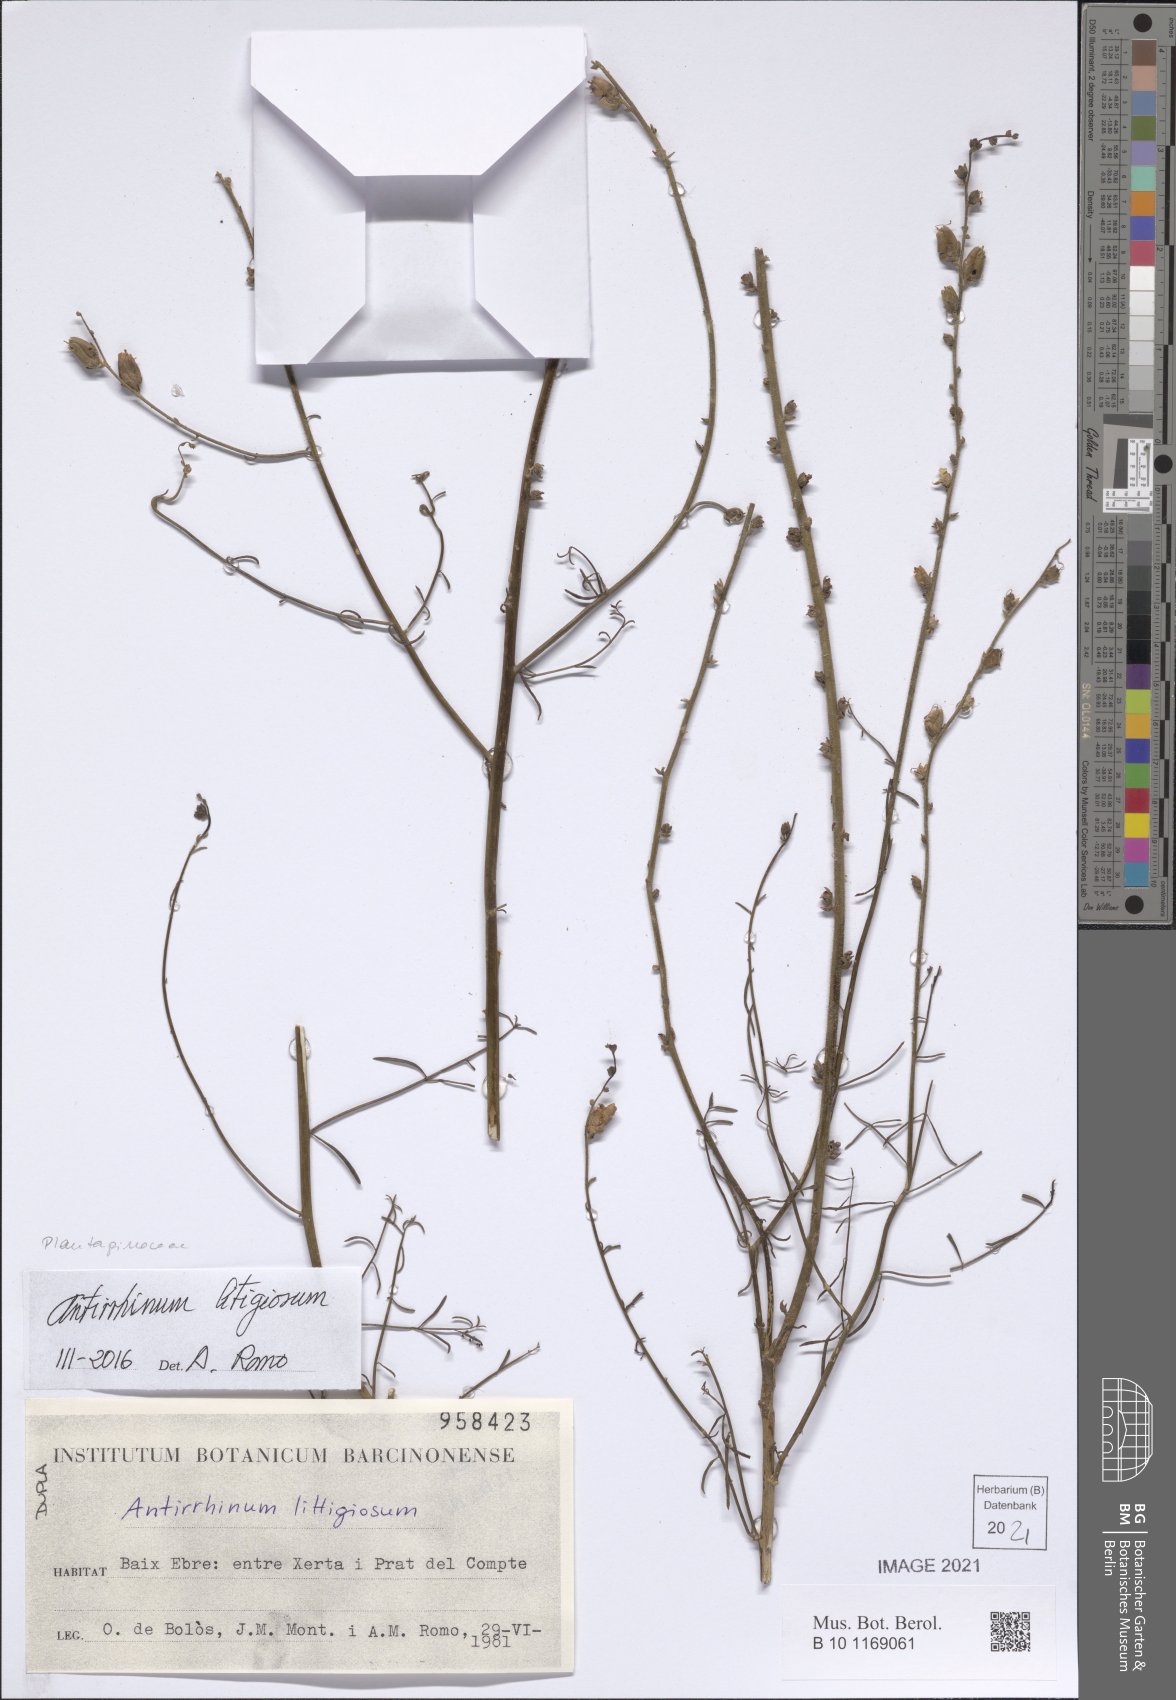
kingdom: Plantae
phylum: Tracheophyta
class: Magnoliopsida
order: Lamiales
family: Plantaginaceae
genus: Antirrhinum
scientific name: Antirrhinum litigiosum
